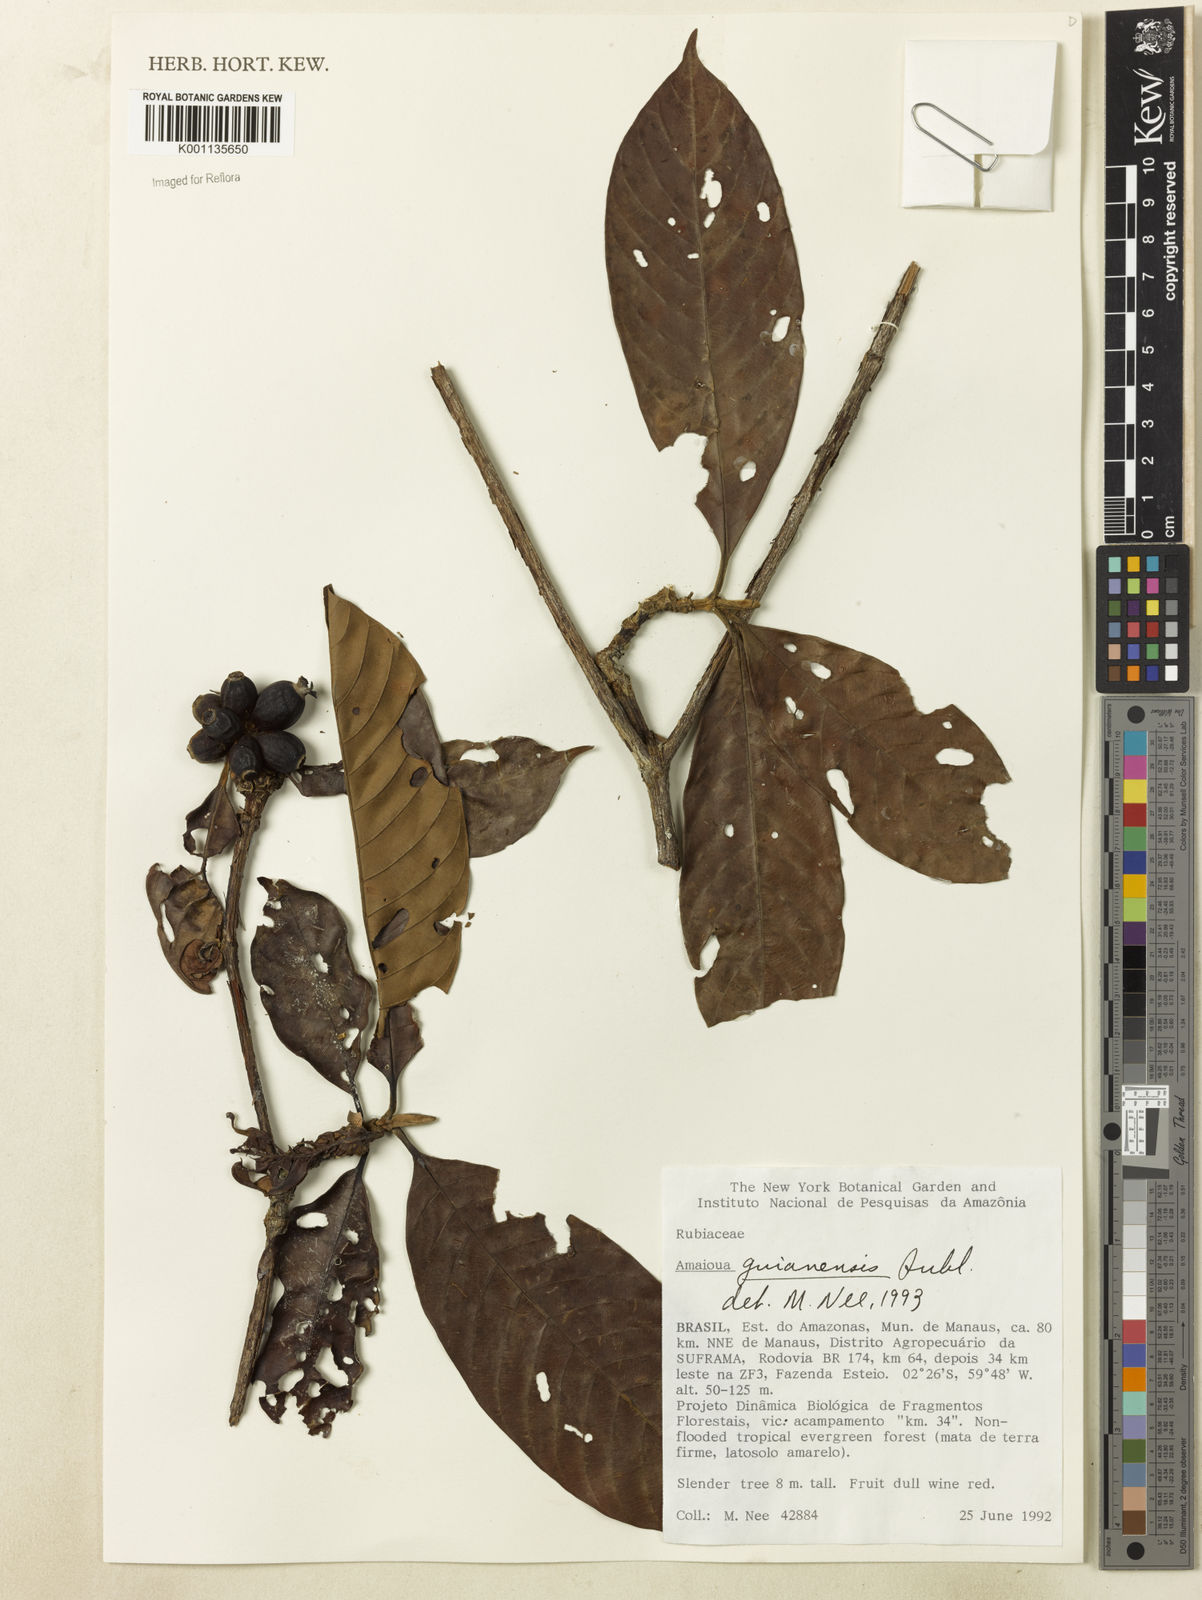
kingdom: Plantae
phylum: Tracheophyta
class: Magnoliopsida
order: Gentianales
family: Rubiaceae
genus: Amaioua
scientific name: Amaioua guianensis
